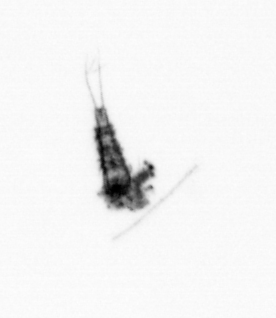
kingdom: Animalia
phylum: Arthropoda
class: Copepoda
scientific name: Copepoda
